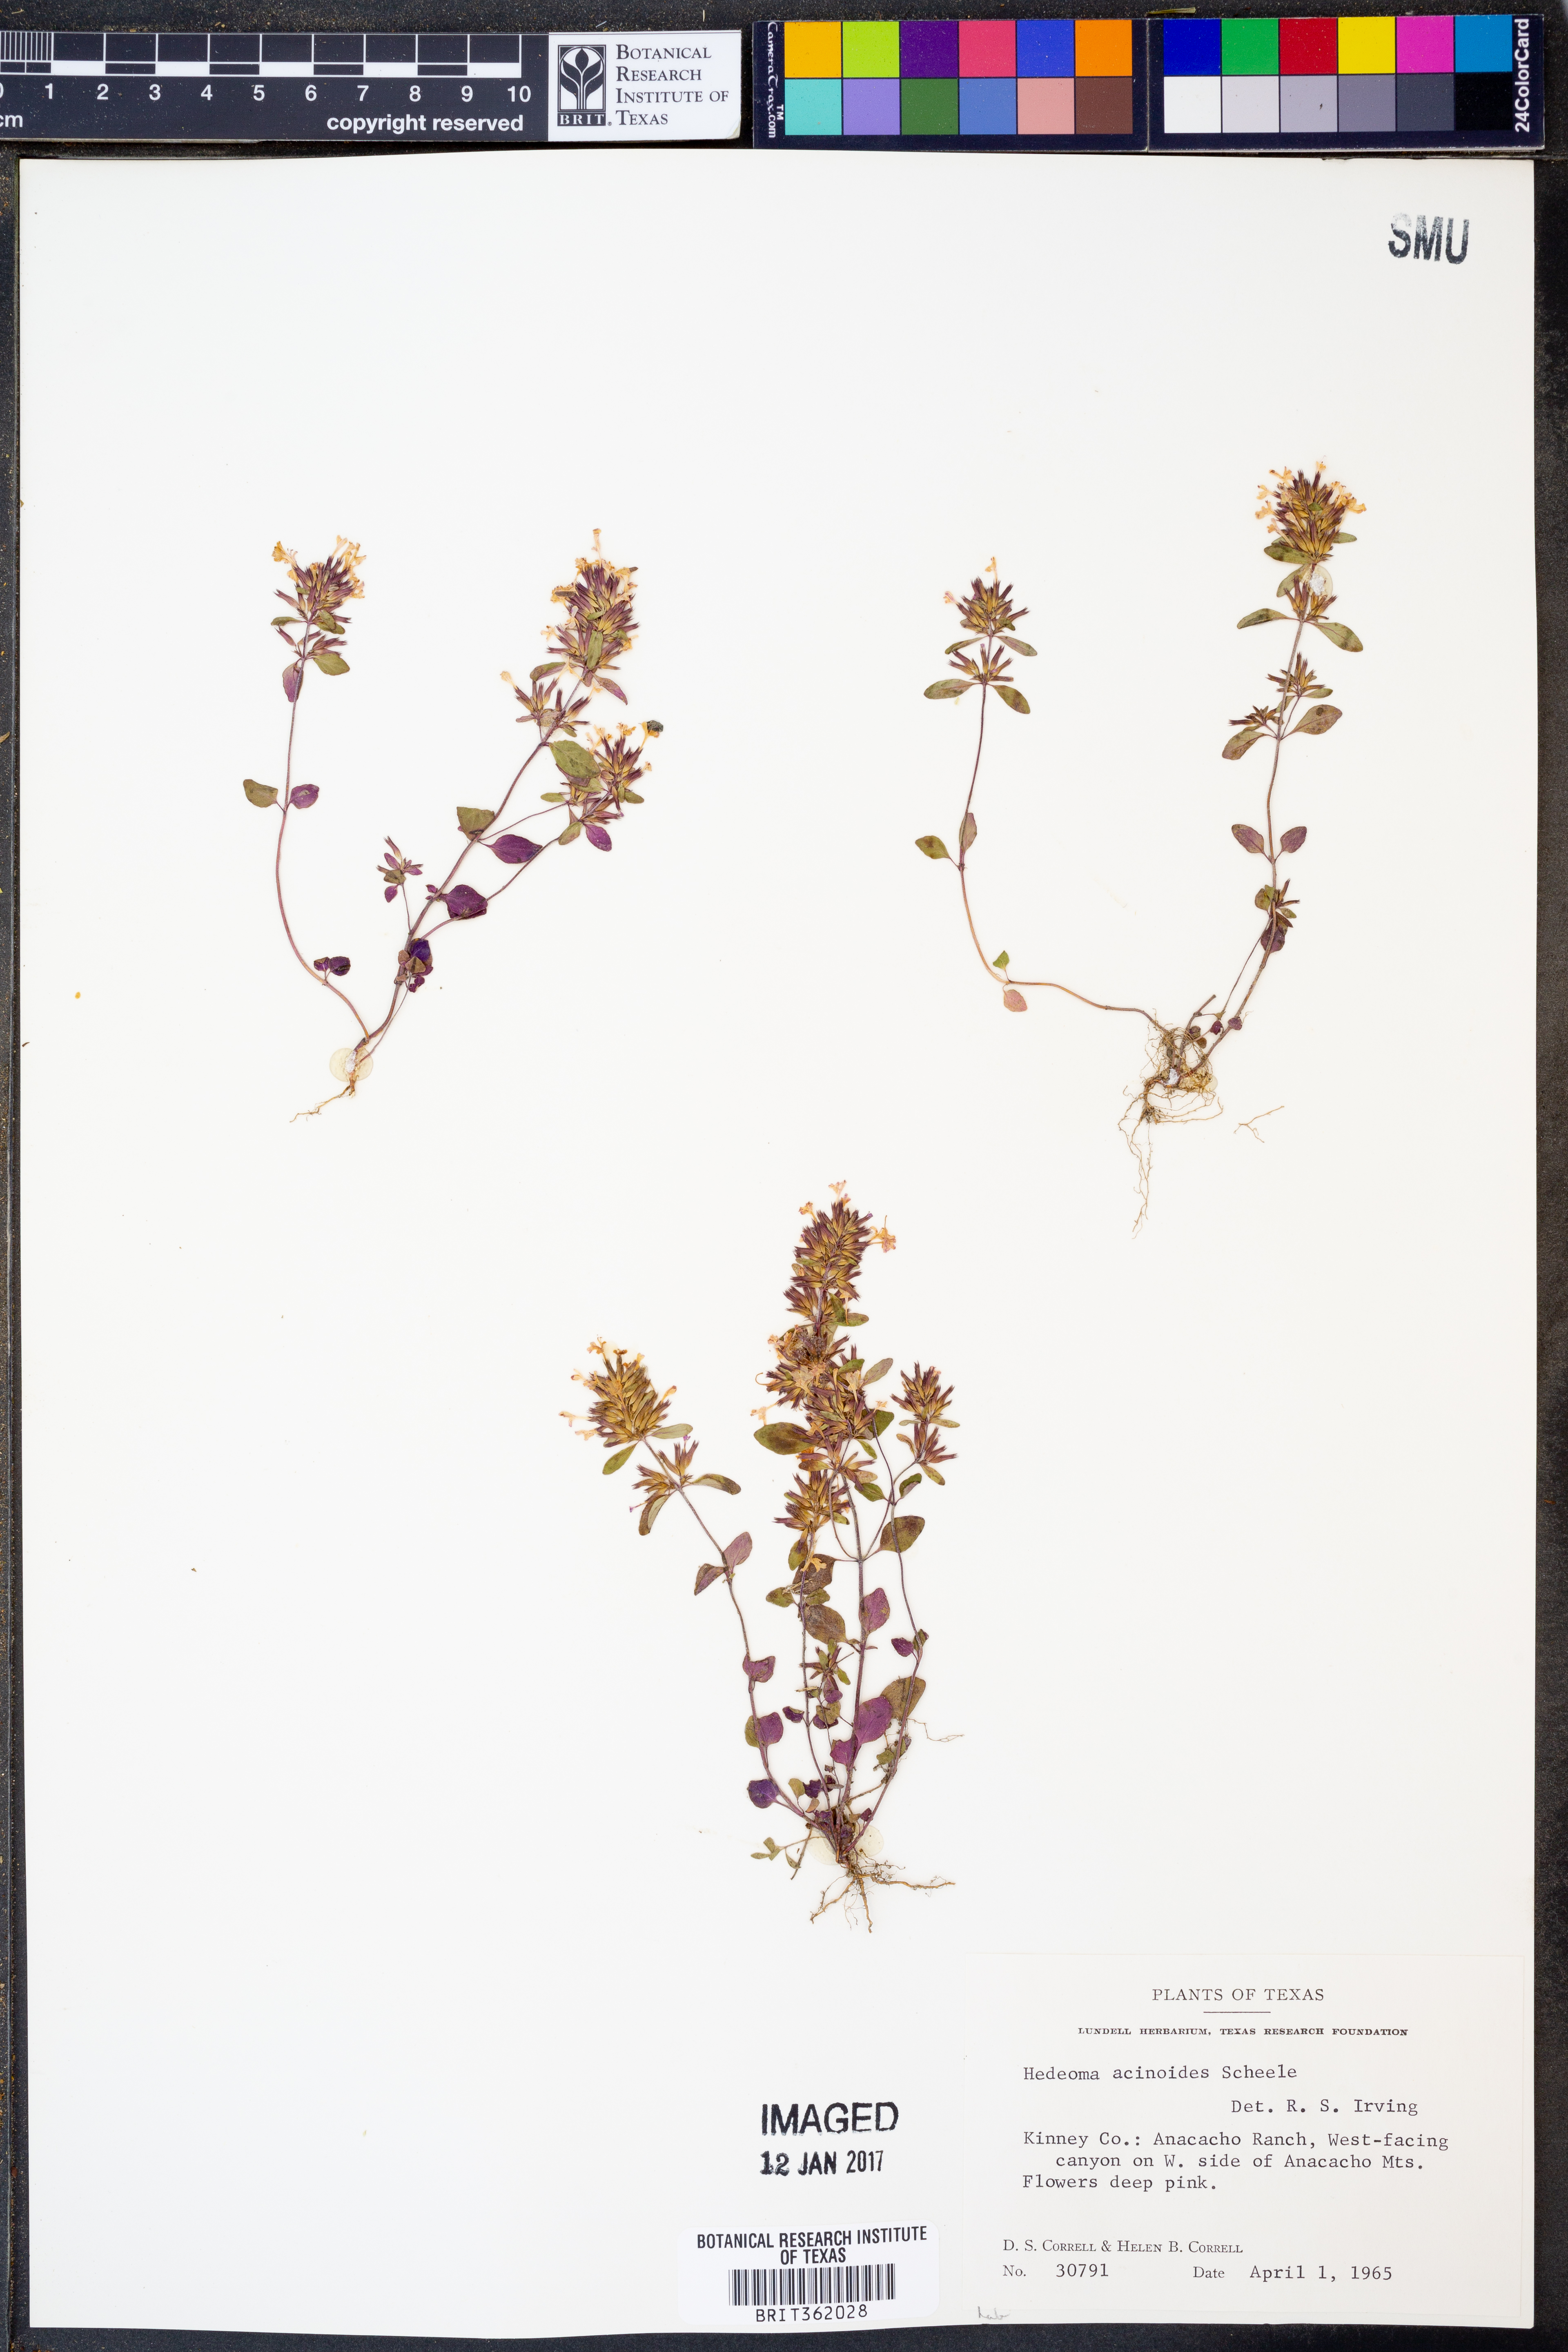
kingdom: Plantae
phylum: Tracheophyta
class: Magnoliopsida
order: Lamiales
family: Lamiaceae
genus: Hedeoma
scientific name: Hedeoma acinoides
